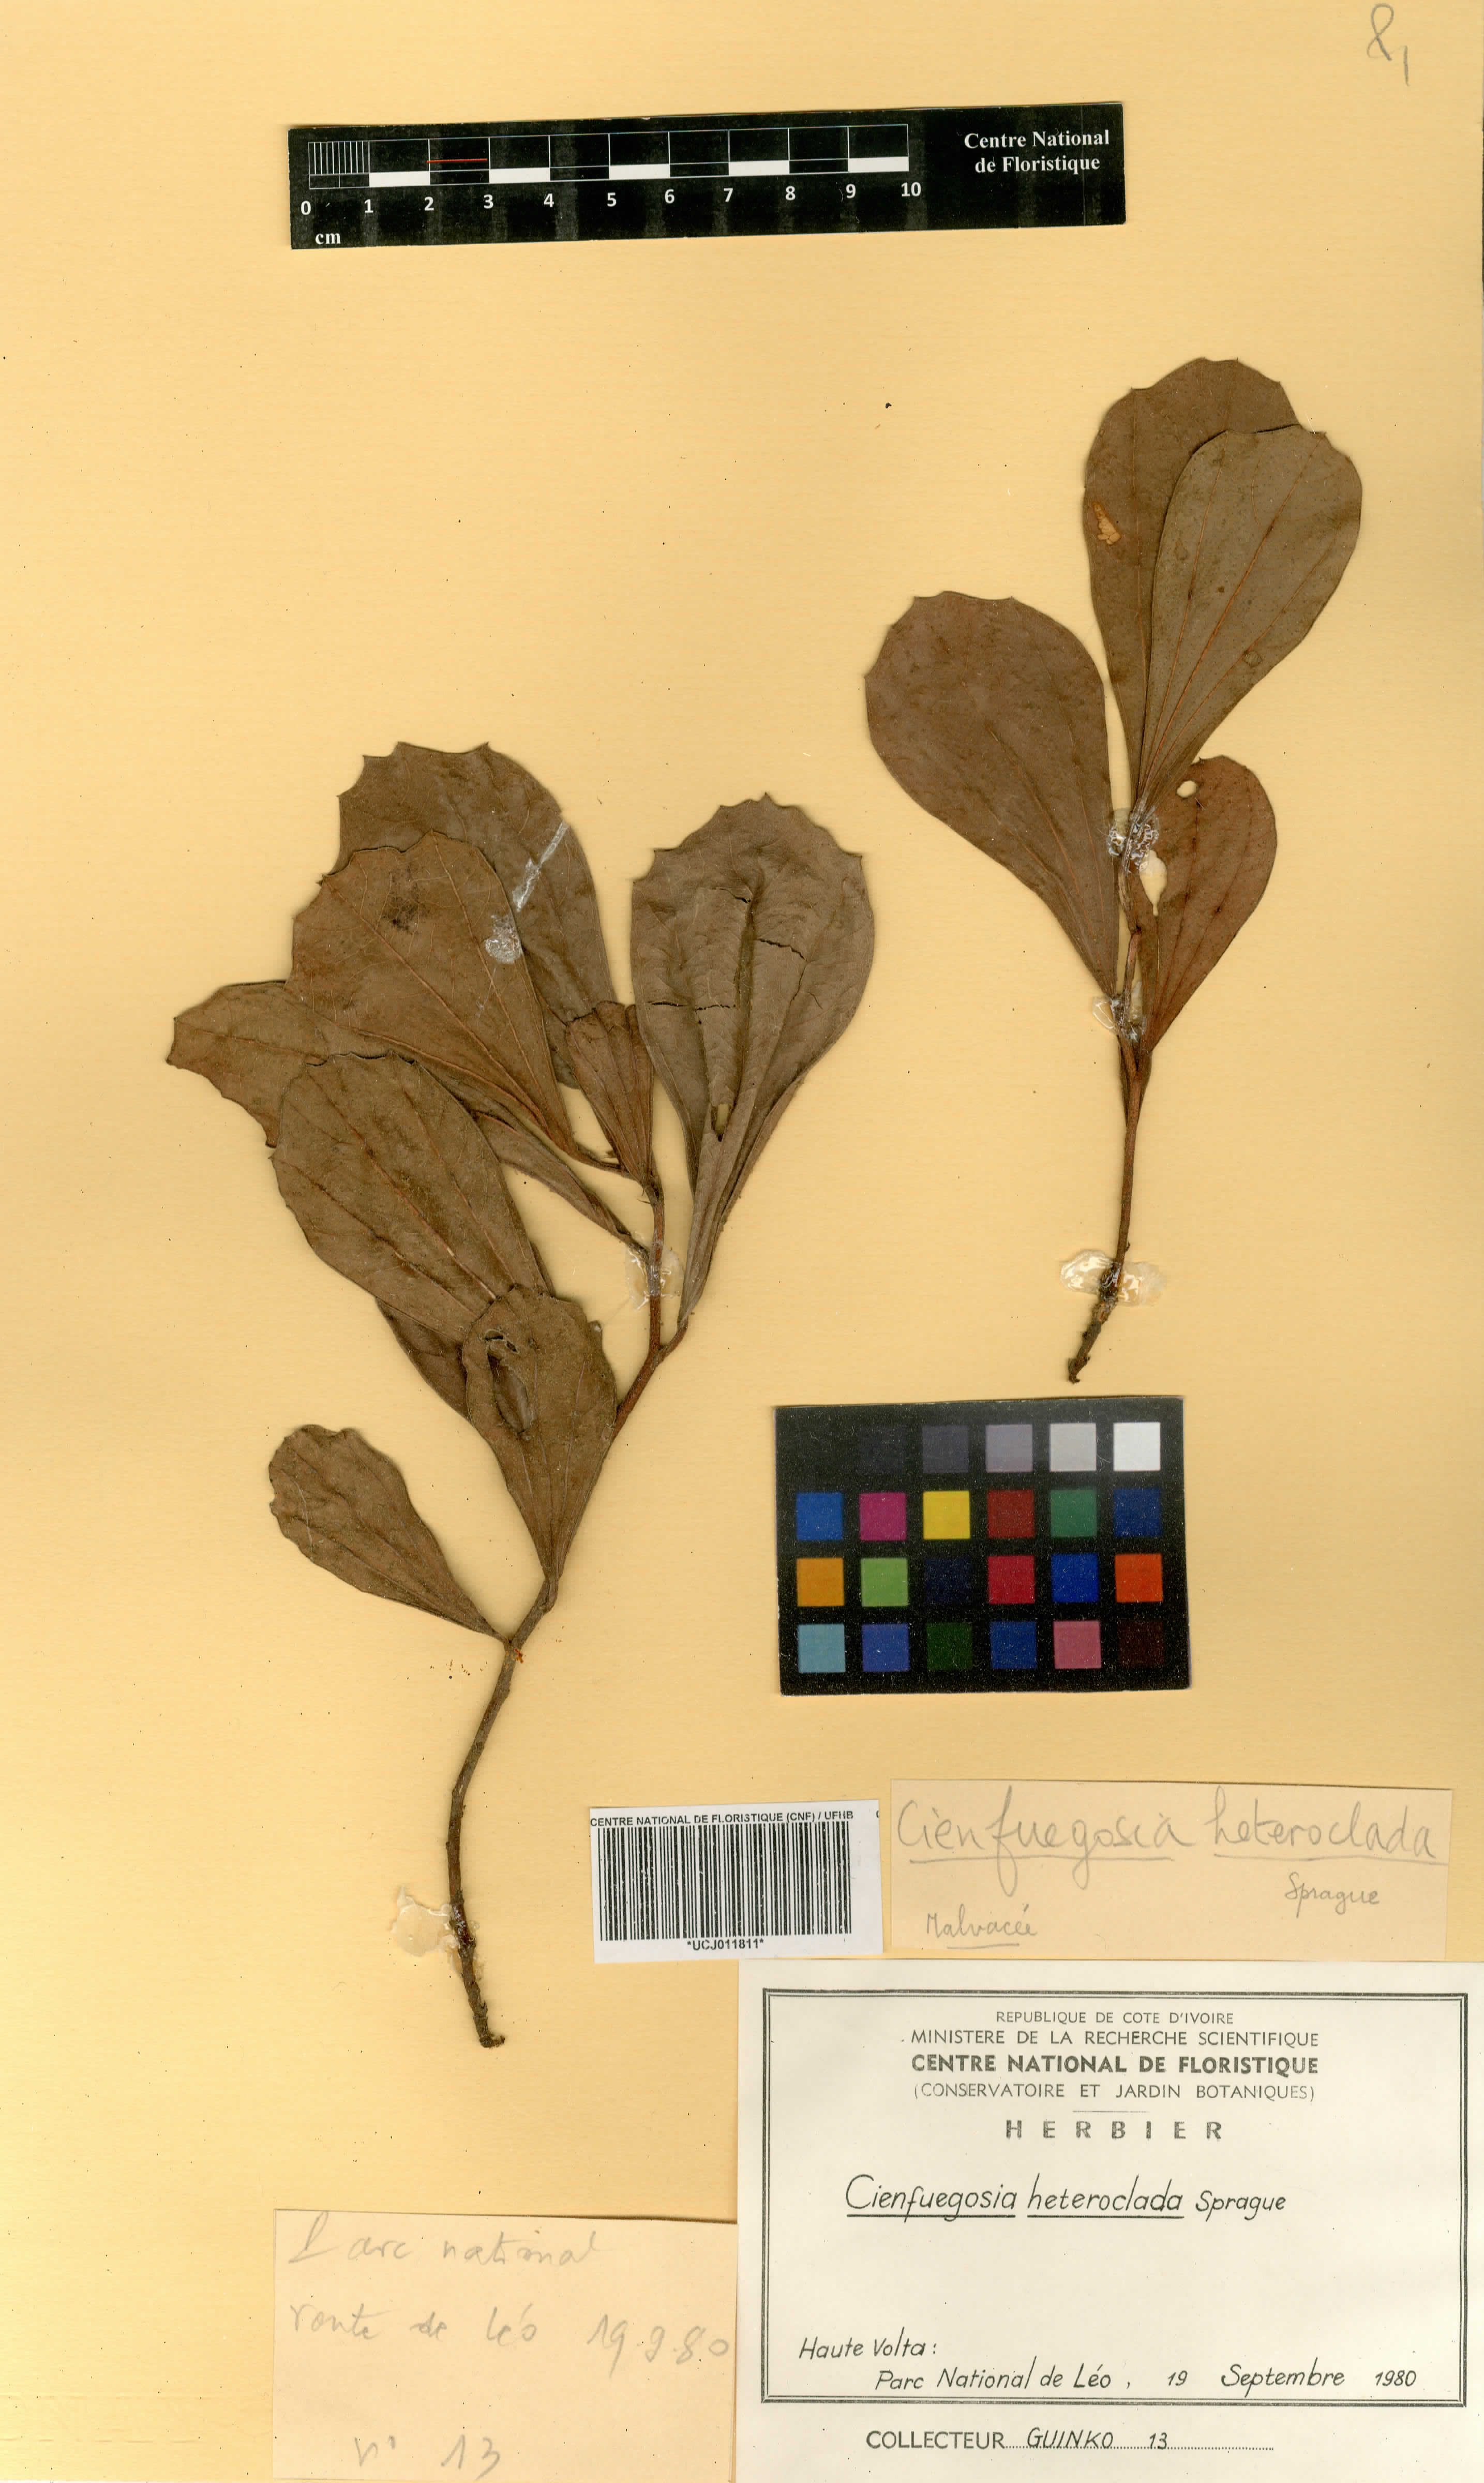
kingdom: Plantae
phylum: Tracheophyta
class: Magnoliopsida
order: Malvales
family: Malvaceae
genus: Cienfuegosia
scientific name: Cienfuegosia heteroclada
